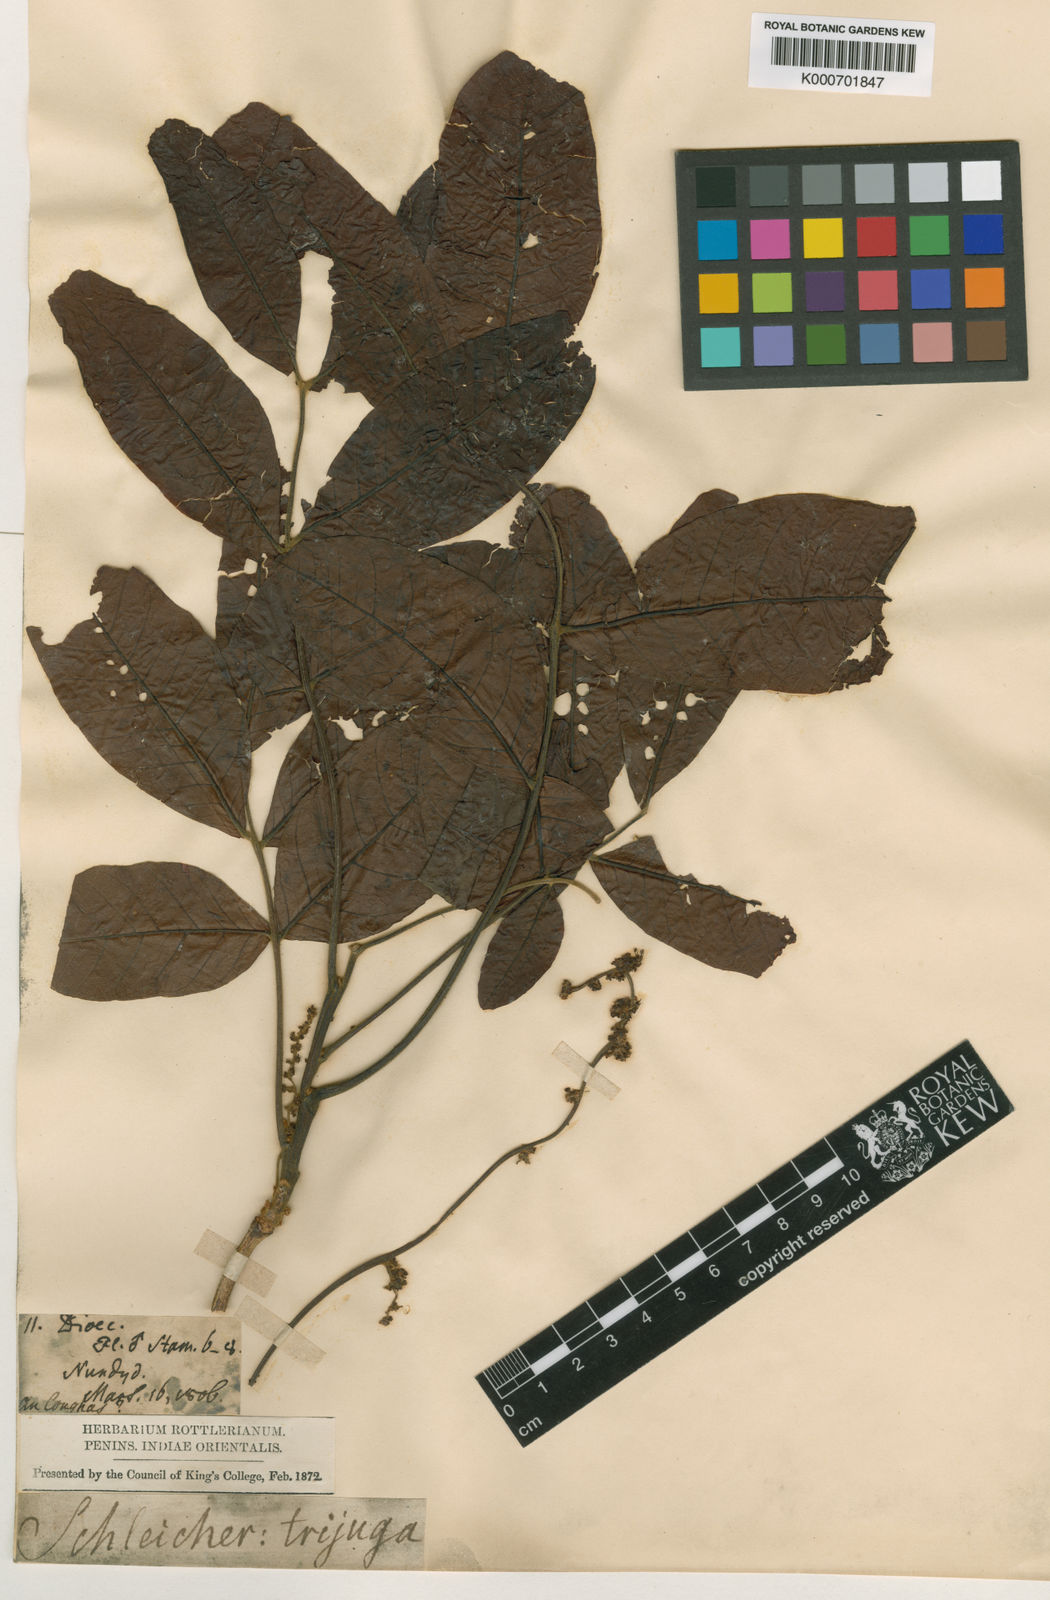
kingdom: Plantae
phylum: Tracheophyta
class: Magnoliopsida
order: Sapindales
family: Sapindaceae
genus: Schleichera
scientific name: Schleichera oleosa
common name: Malay lactree
